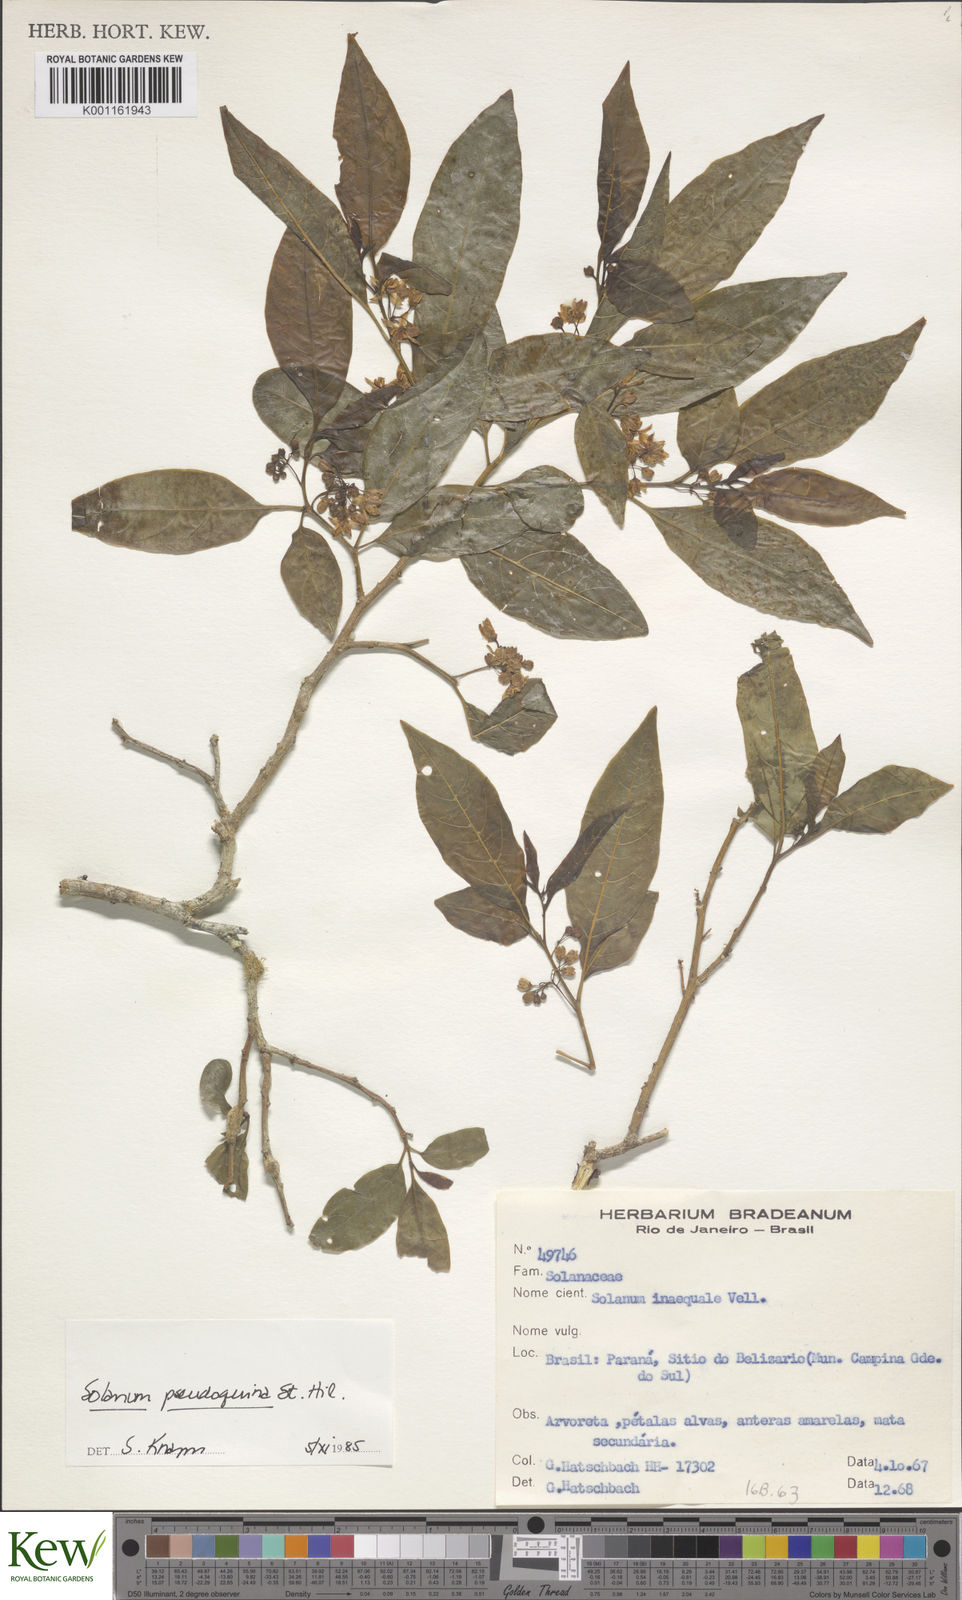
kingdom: Plantae
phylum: Tracheophyta
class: Magnoliopsida
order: Solanales
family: Solanaceae
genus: Solanum
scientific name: Solanum pseudoquina
